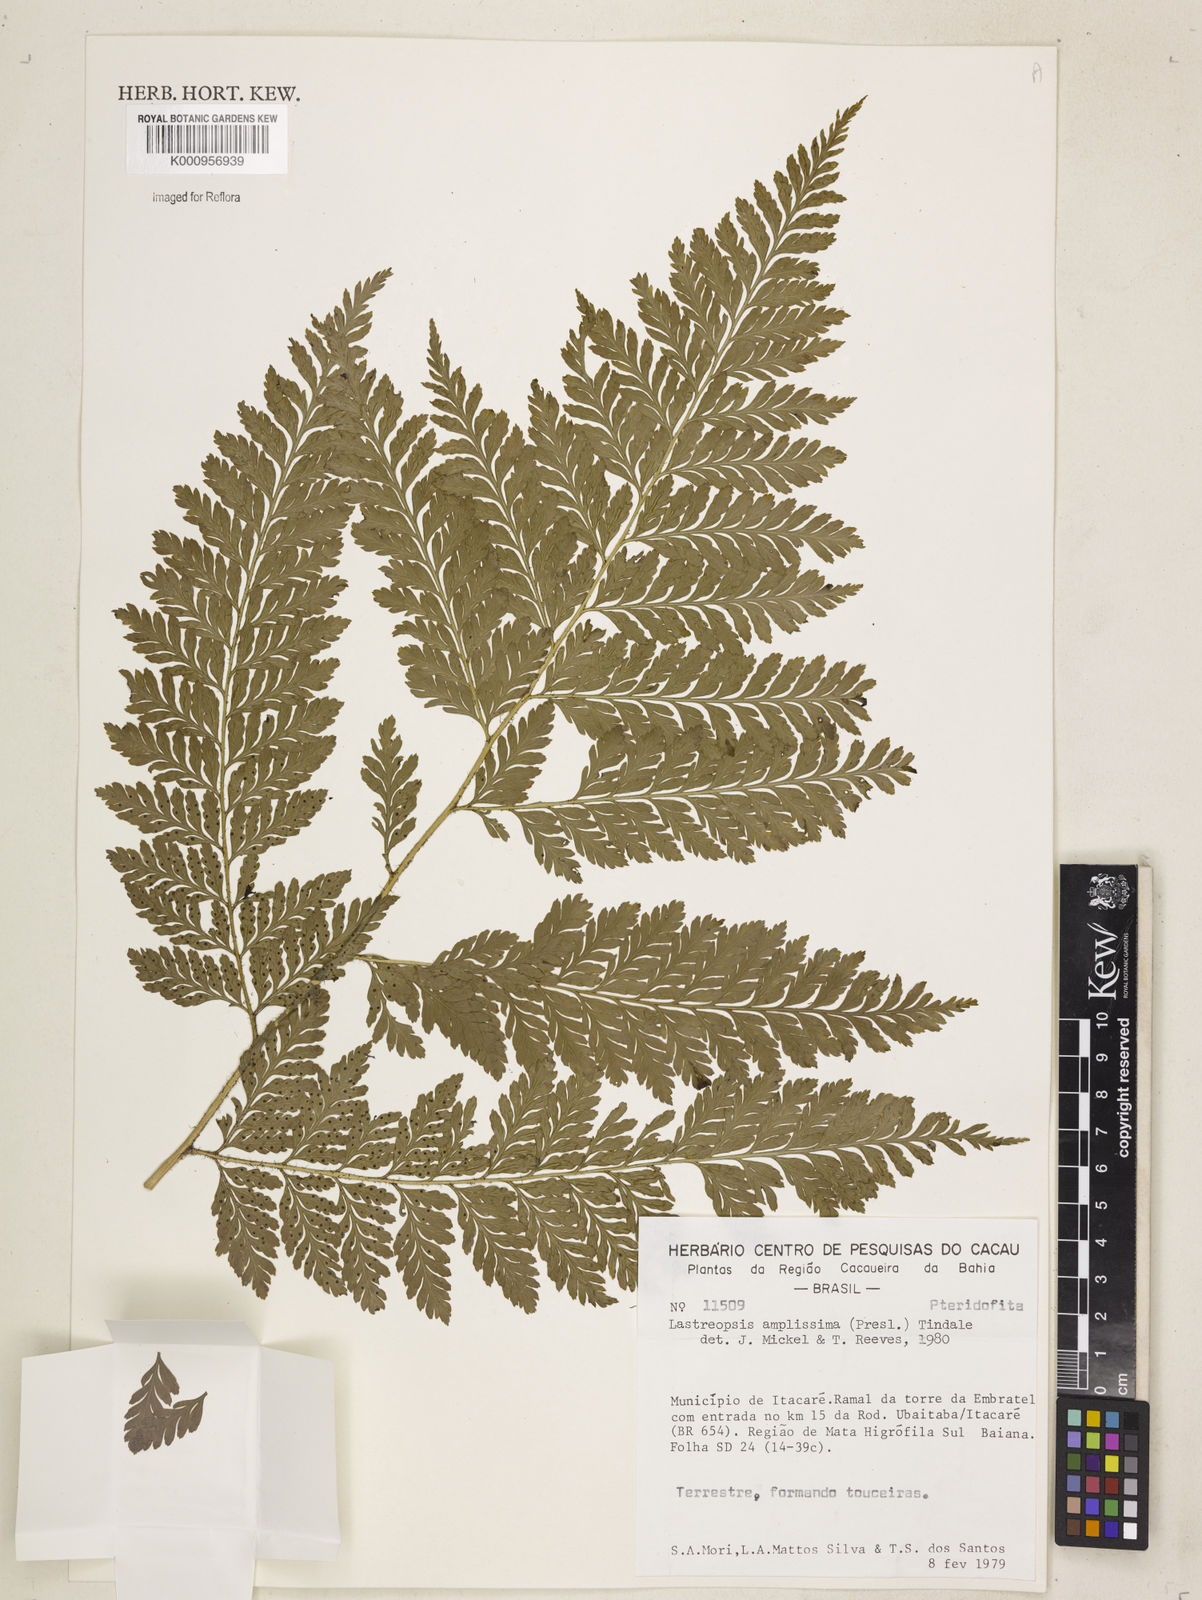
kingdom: Plantae
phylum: Tracheophyta
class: Polypodiopsida
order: Polypodiales
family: Dryopteridaceae
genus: Lastreopsis
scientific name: Lastreopsis amplissima
